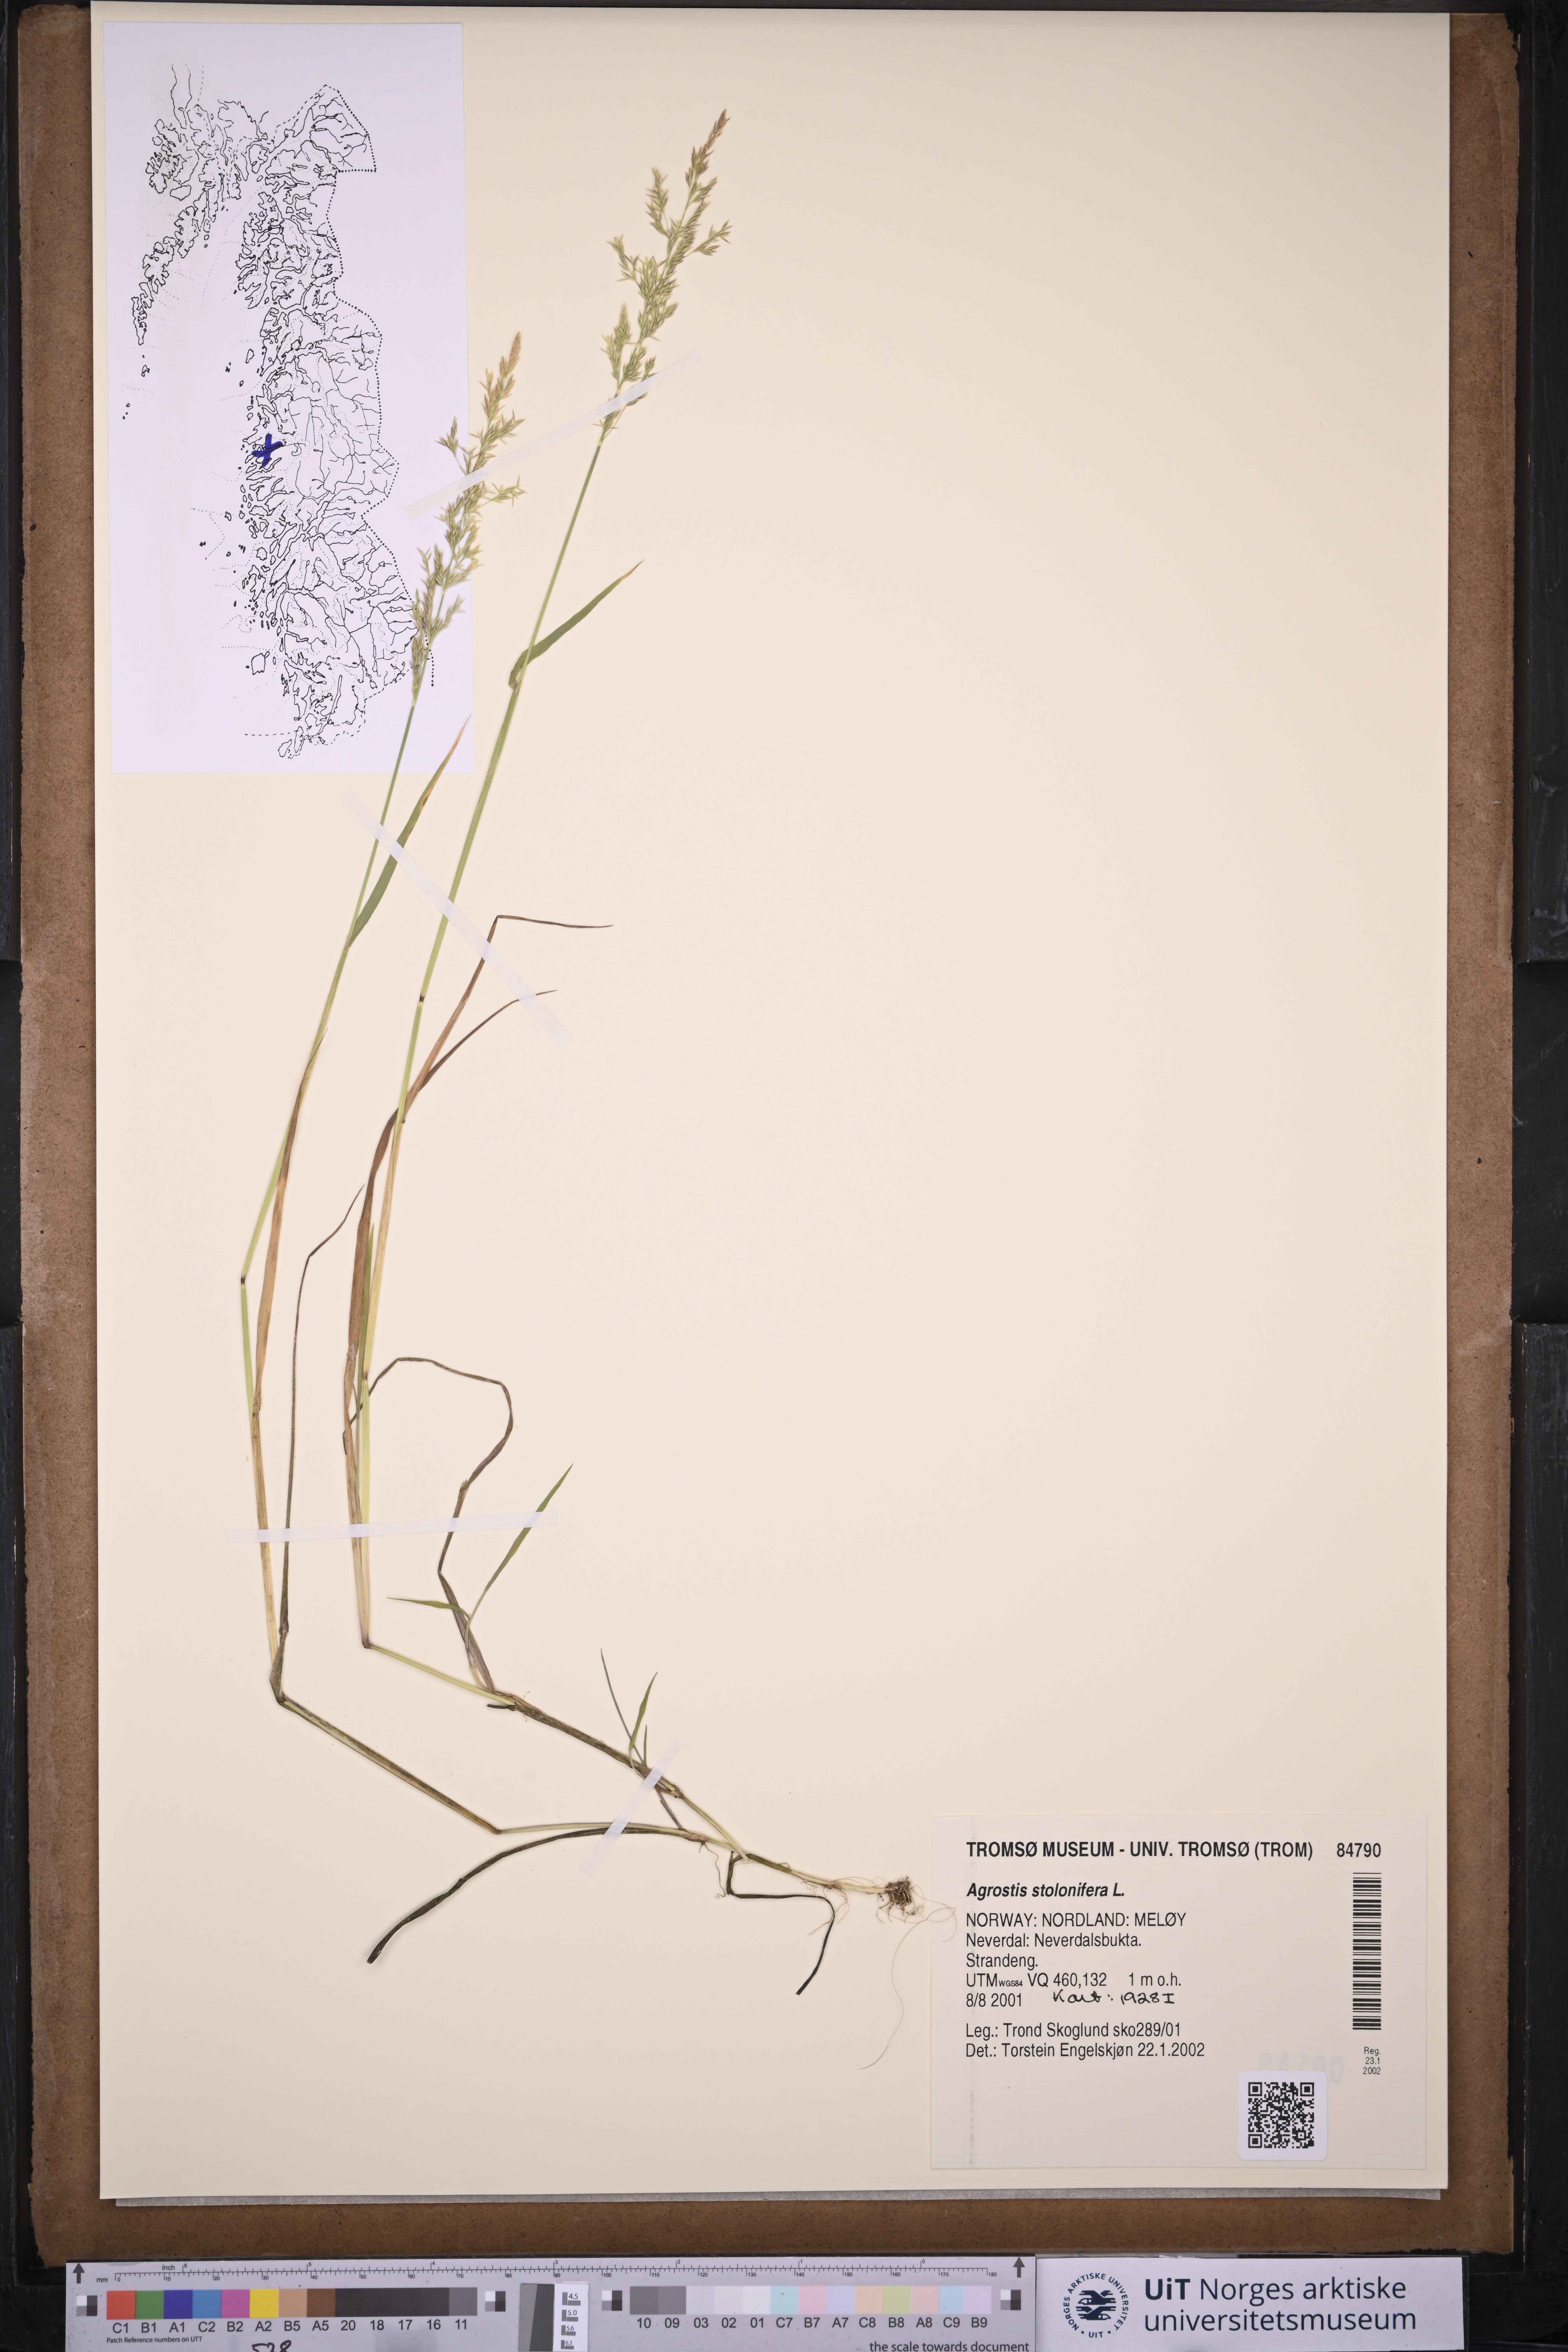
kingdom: Plantae
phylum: Tracheophyta
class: Liliopsida
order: Poales
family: Poaceae
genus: Agrostis
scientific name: Agrostis stolonifera
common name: Creeping bentgrass
